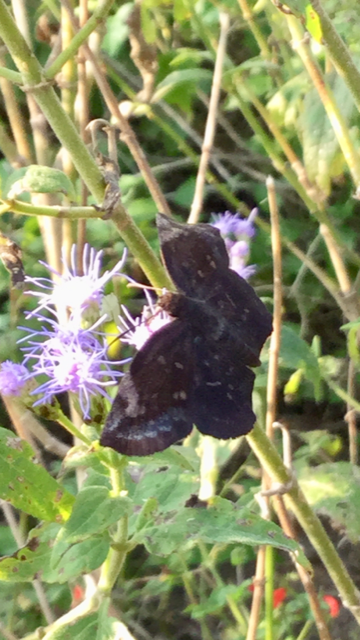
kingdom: Animalia
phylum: Arthropoda
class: Insecta
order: Lepidoptera
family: Hesperiidae
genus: Achlyodes
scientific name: Achlyodes thraso
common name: Sickle-winged Skipper
